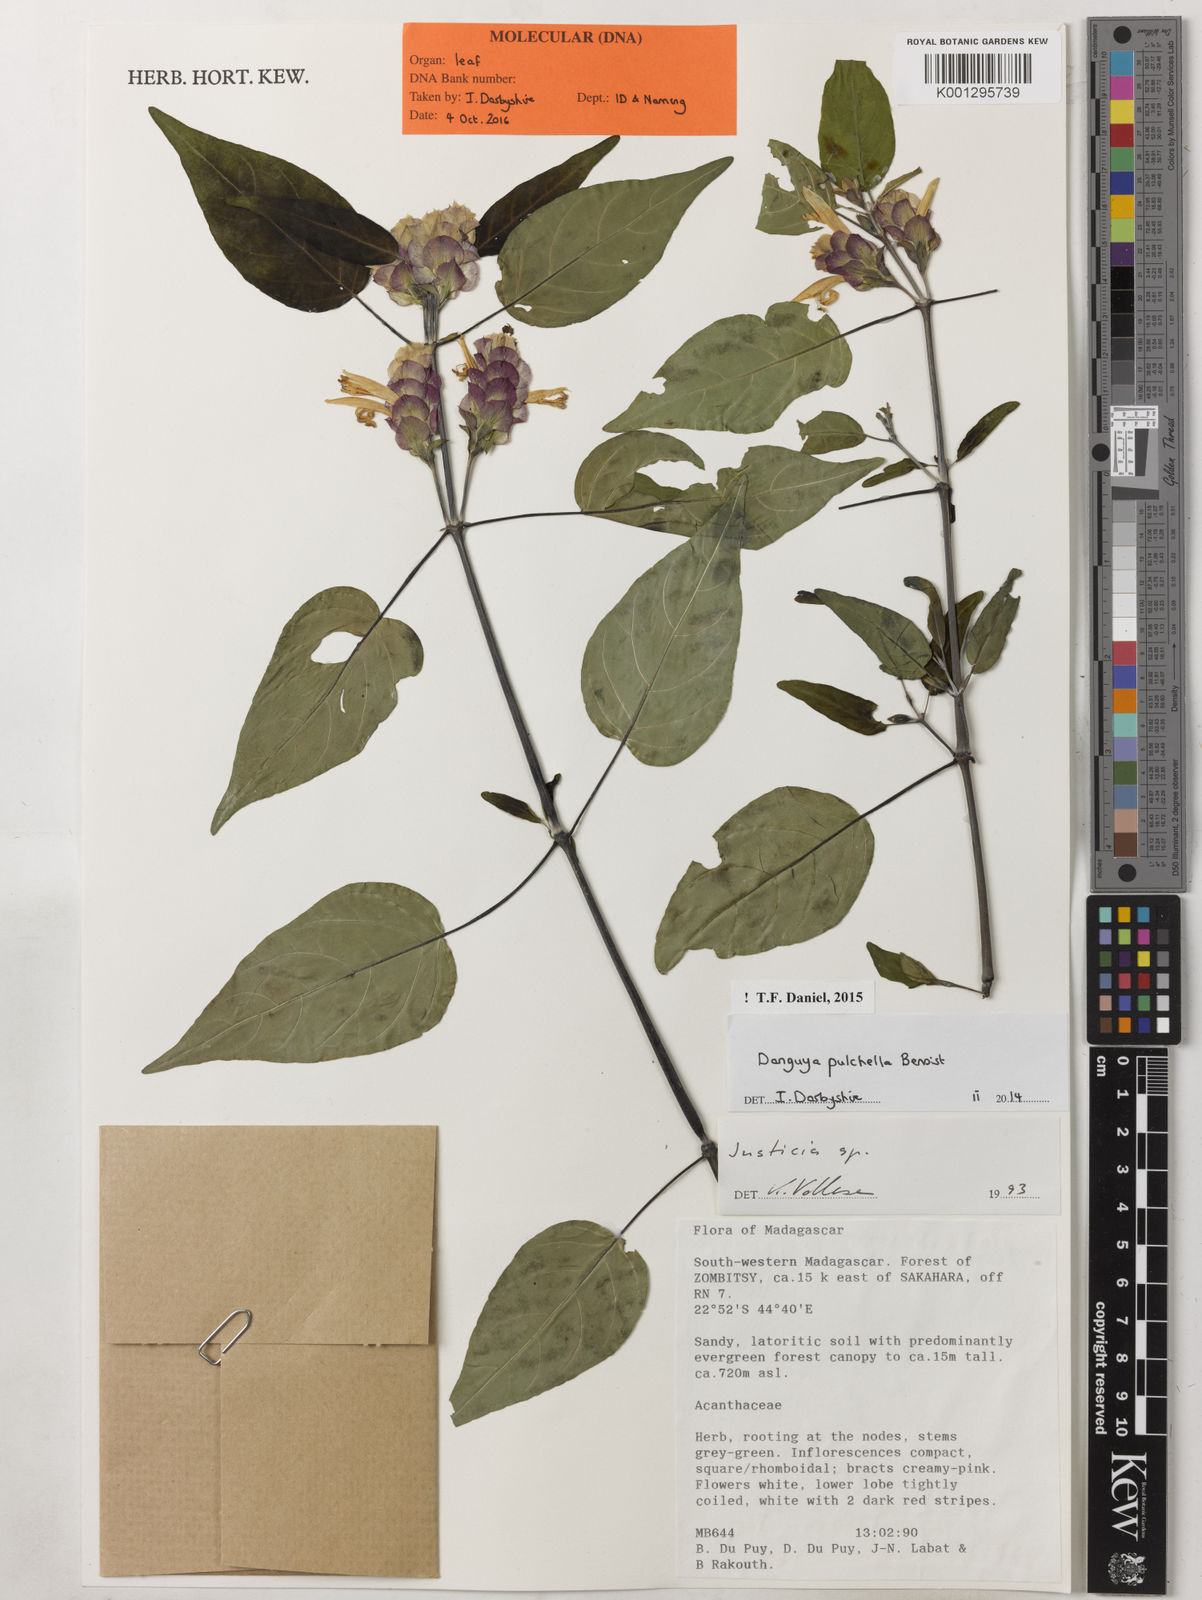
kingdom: Plantae
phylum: Tracheophyta
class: Magnoliopsida
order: Lamiales
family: Acanthaceae
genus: Anisotes
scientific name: Anisotes pulchellus
